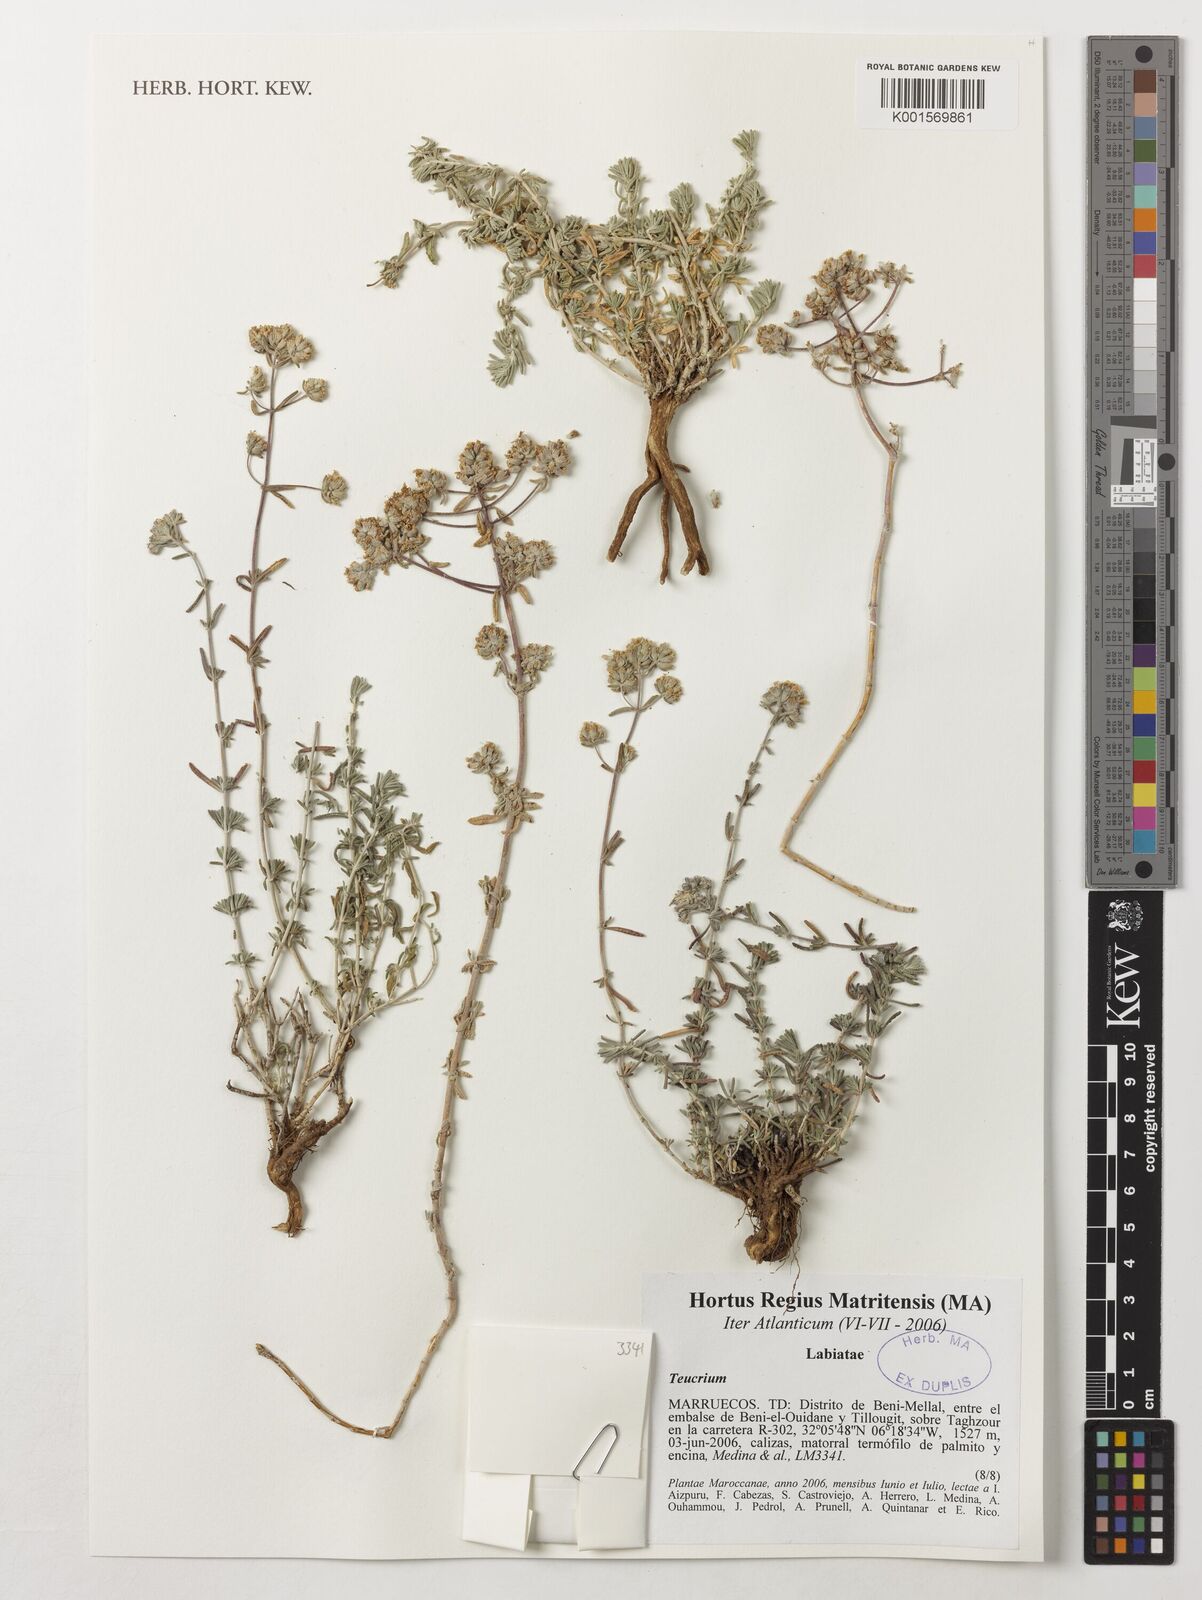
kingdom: Plantae
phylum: Tracheophyta
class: Magnoliopsida
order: Lamiales
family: Lamiaceae
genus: Teucrium
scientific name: Teucrium
